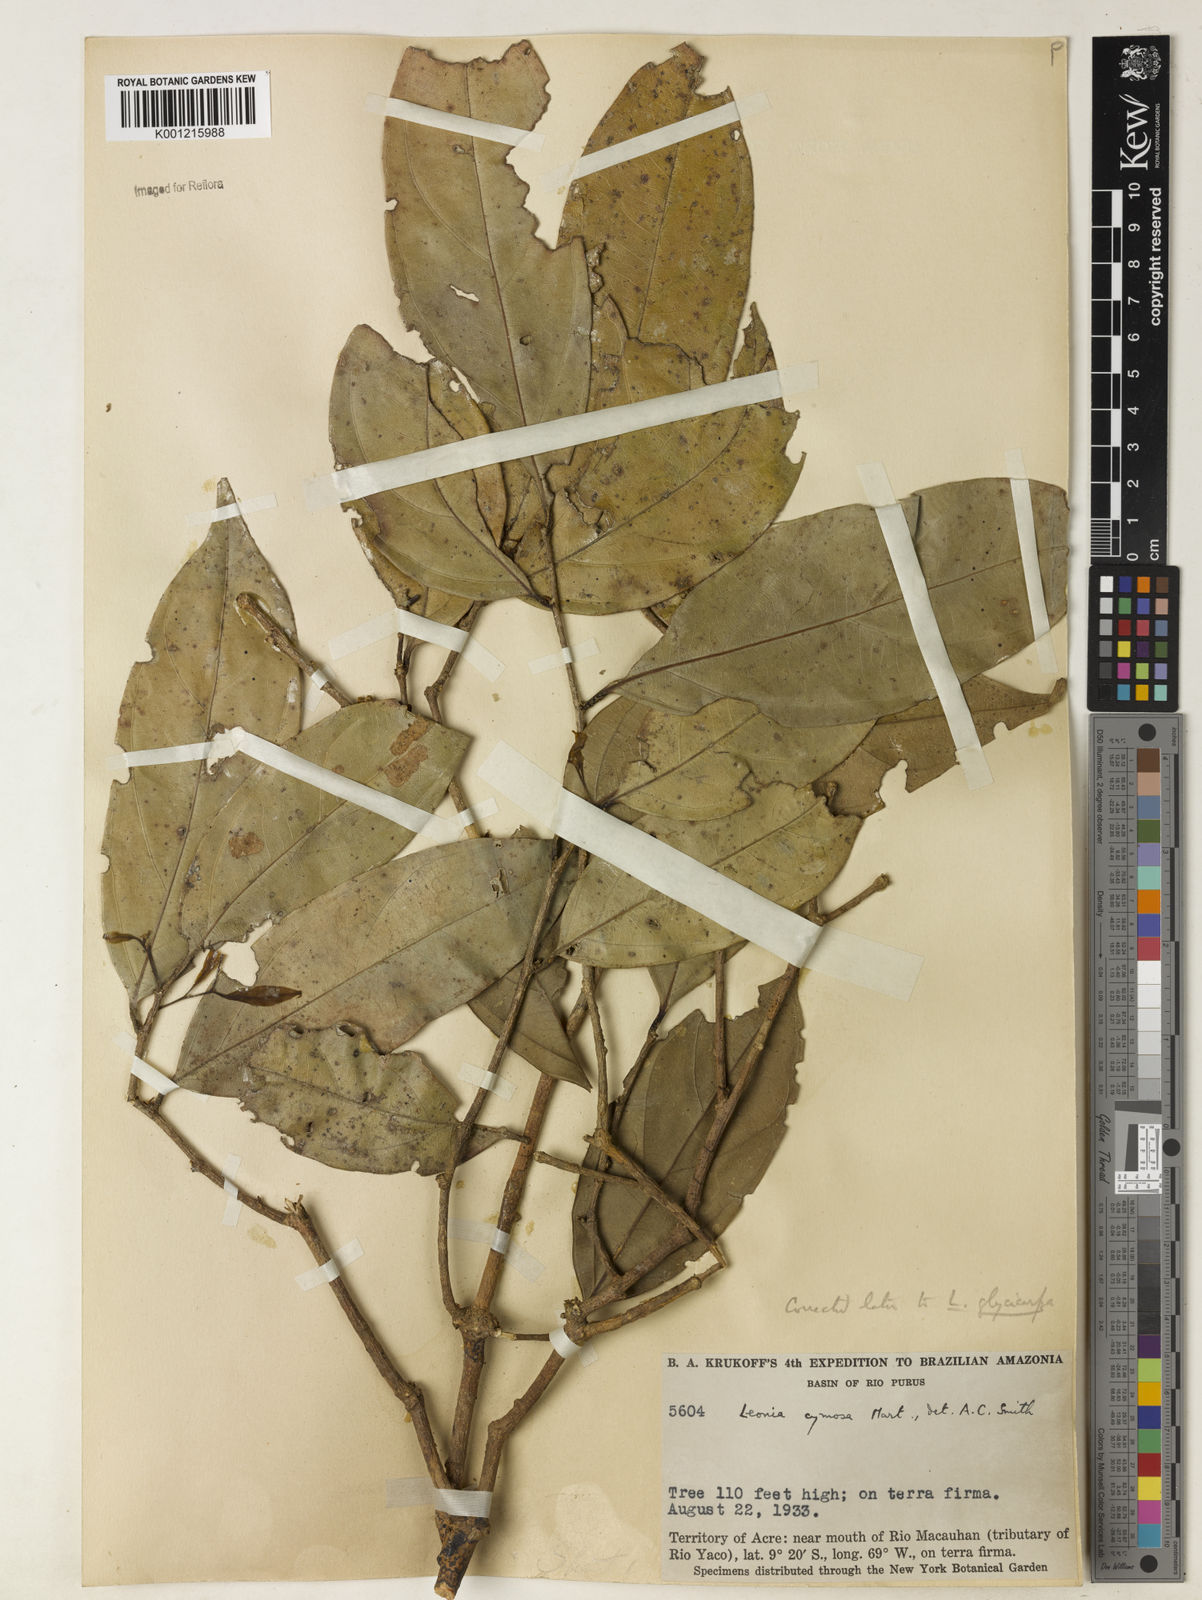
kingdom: Plantae
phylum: Tracheophyta
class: Magnoliopsida
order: Malpighiales
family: Violaceae
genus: Leonia
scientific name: Leonia glycycarpa
